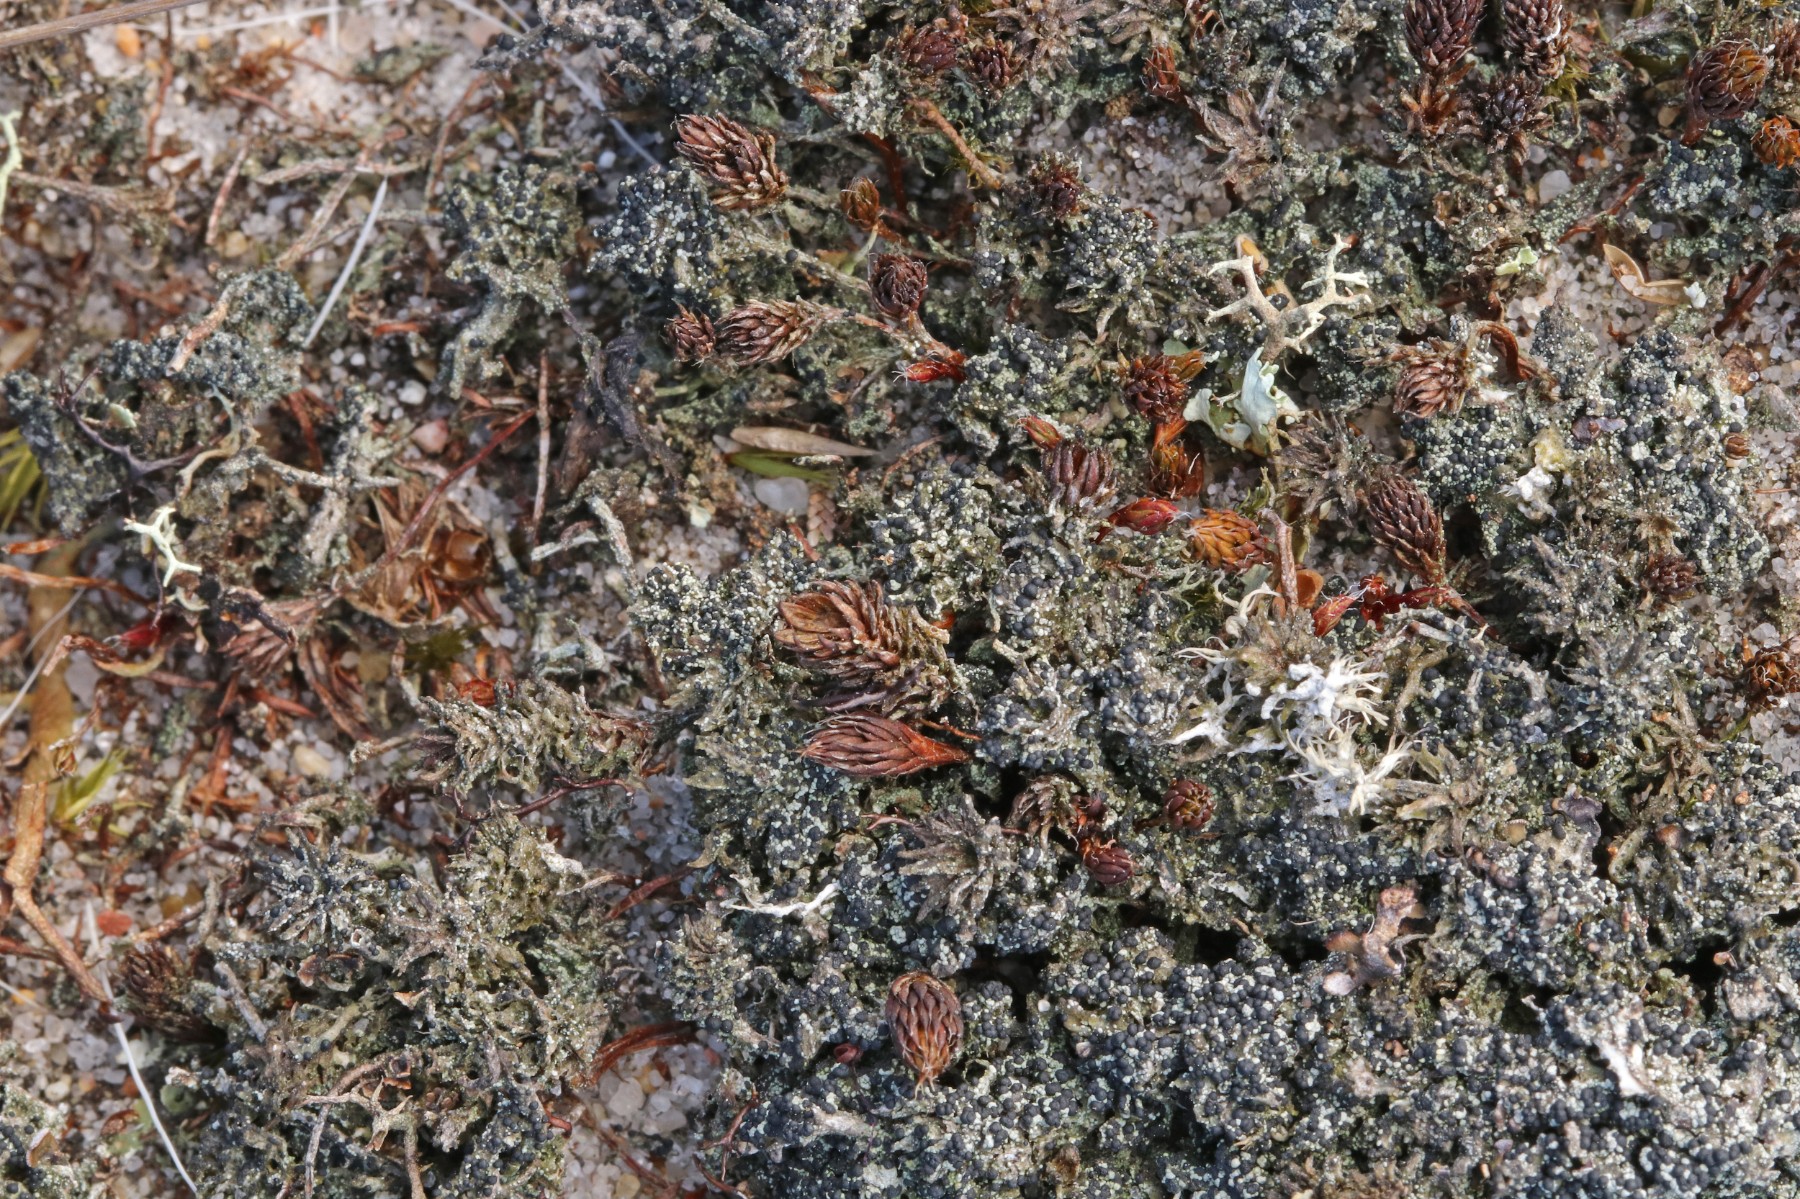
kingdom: Fungi
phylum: Ascomycota
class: Lecanoromycetes
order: Lecanorales
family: Byssolomataceae
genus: Micarea
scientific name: Micarea lignaria
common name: tørve-knaplav
